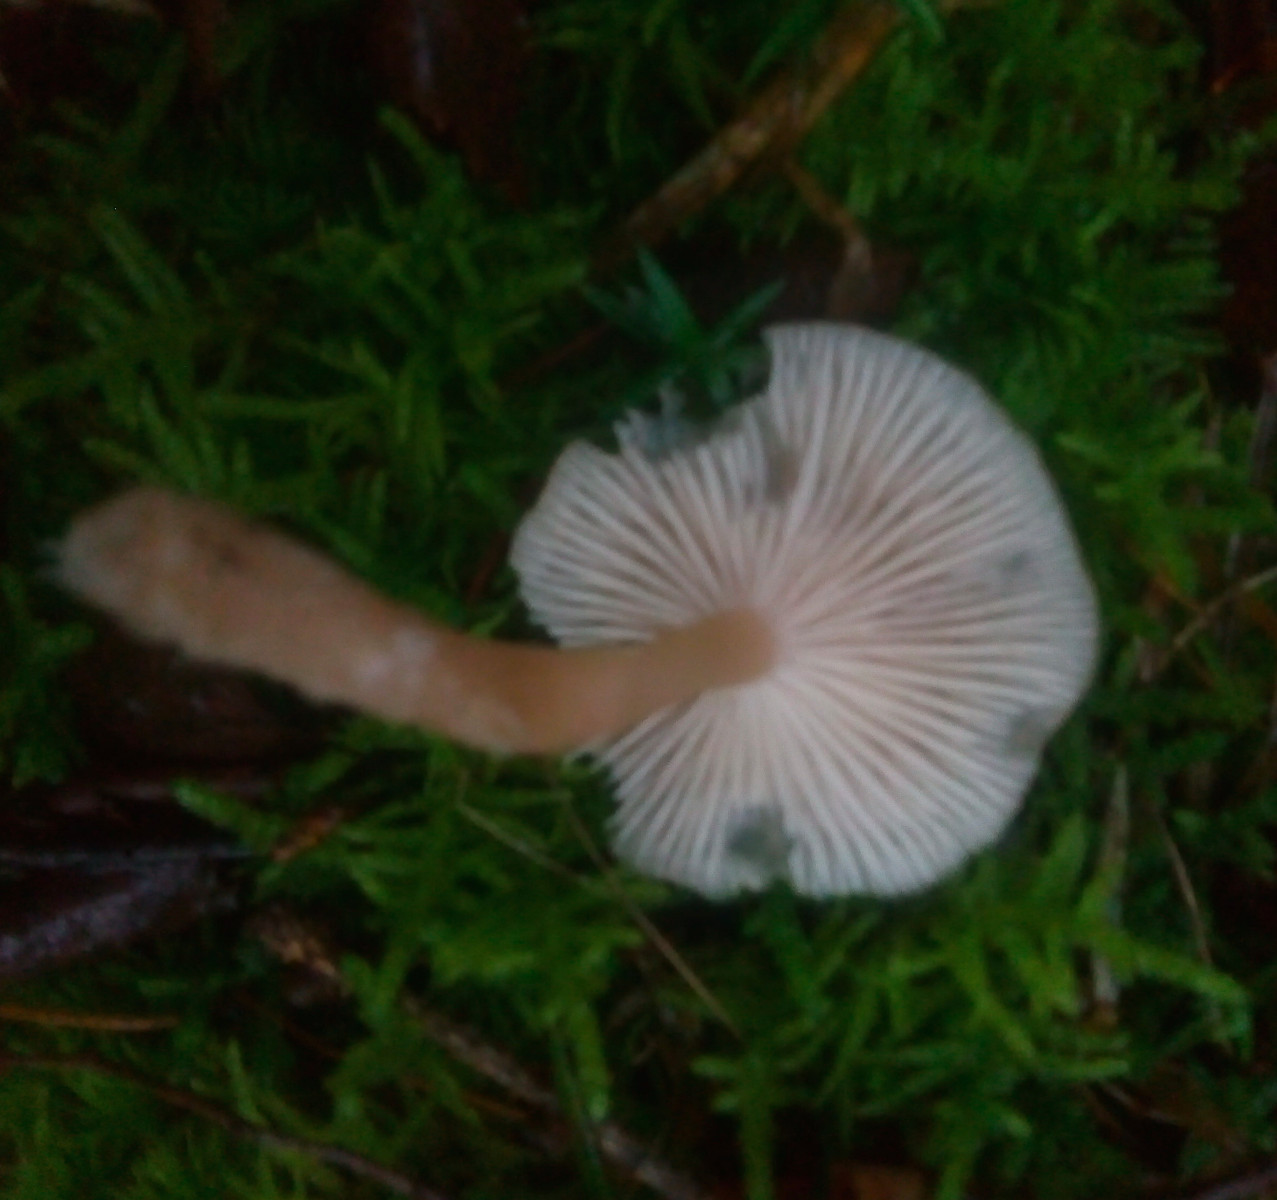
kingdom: Fungi
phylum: Basidiomycota
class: Agaricomycetes
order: Agaricales
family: Tricholomataceae
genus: Clitocybe
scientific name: Clitocybe fragrans
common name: vellugtende tragthat
